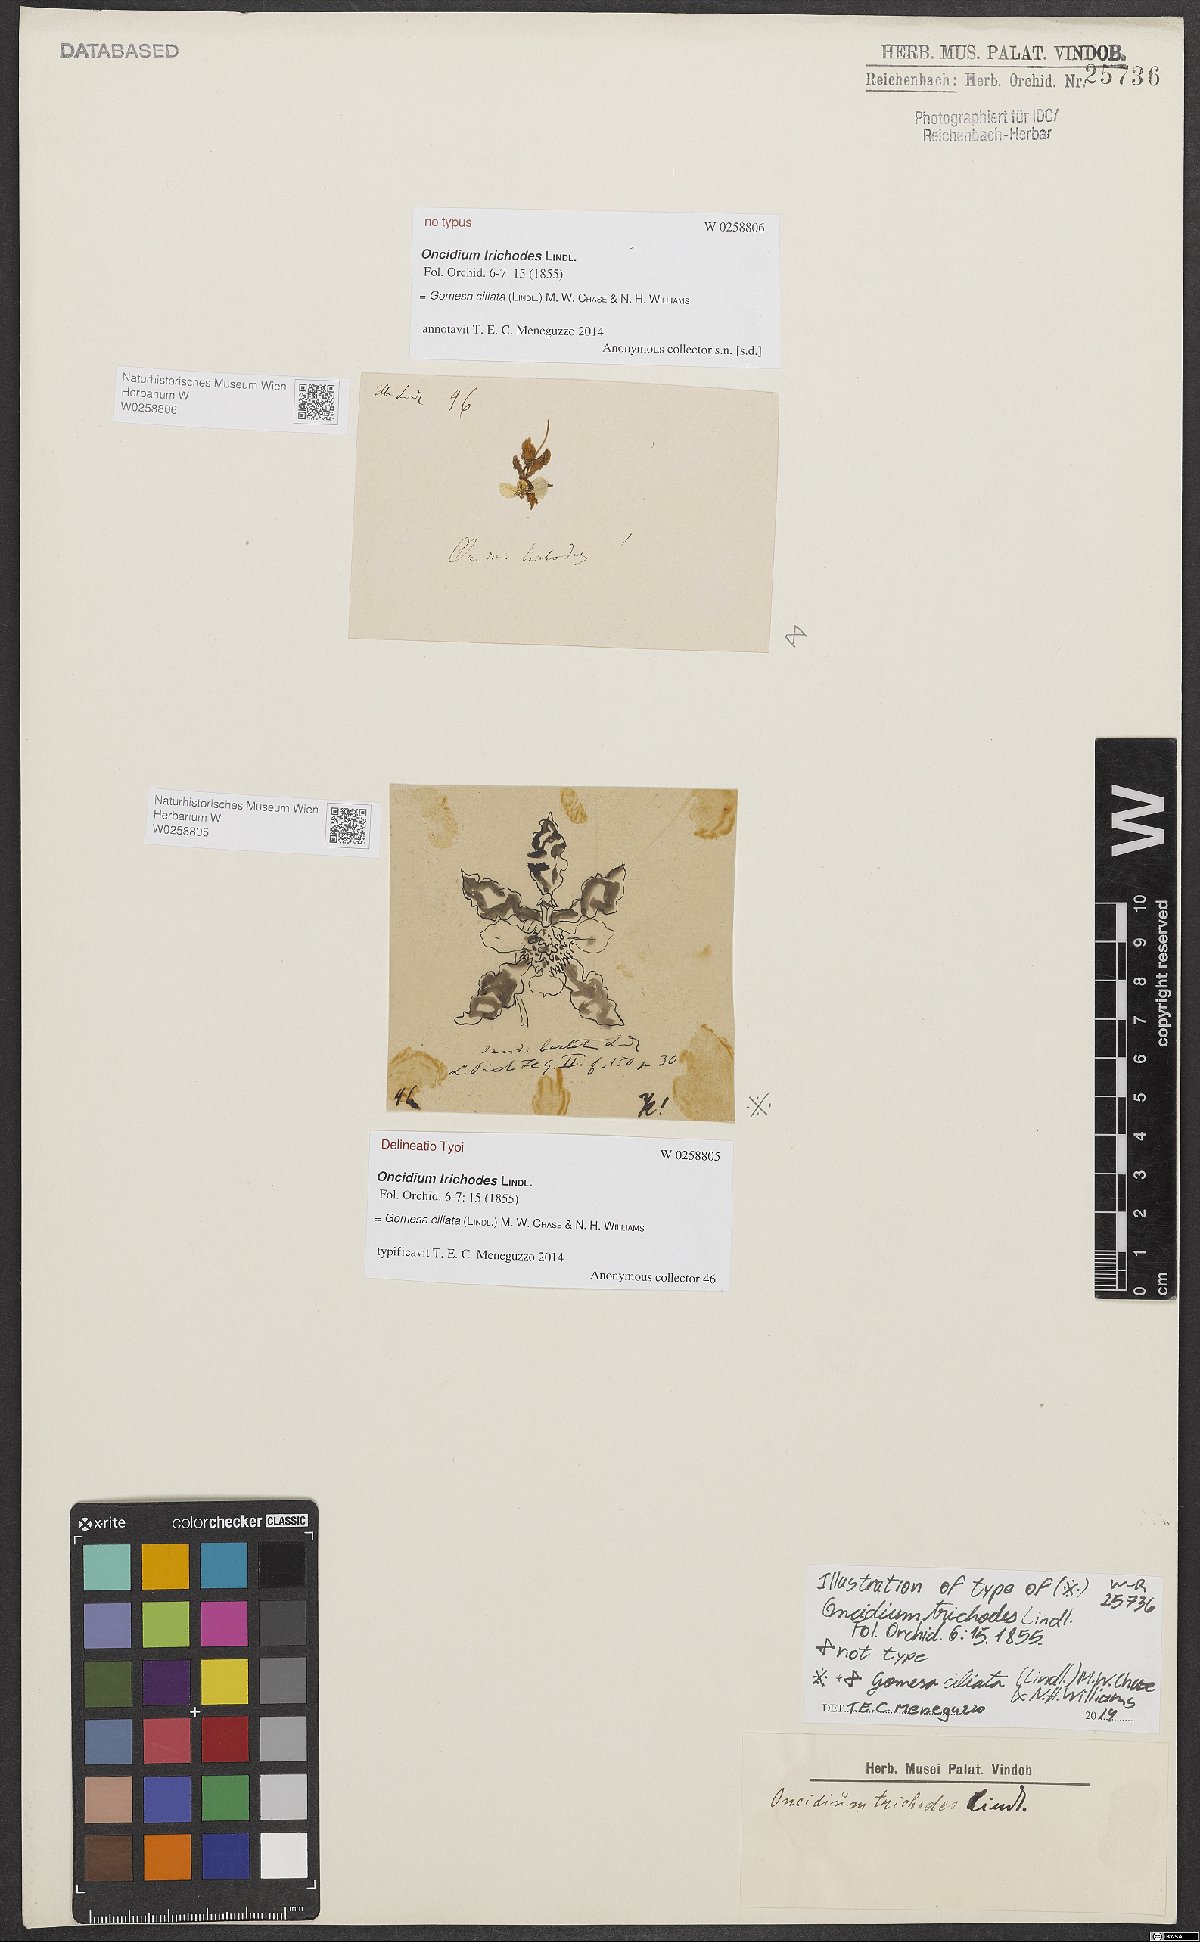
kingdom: Plantae
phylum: Tracheophyta
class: Liliopsida
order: Asparagales
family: Orchidaceae
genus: Gomesa
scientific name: Gomesa ciliata
